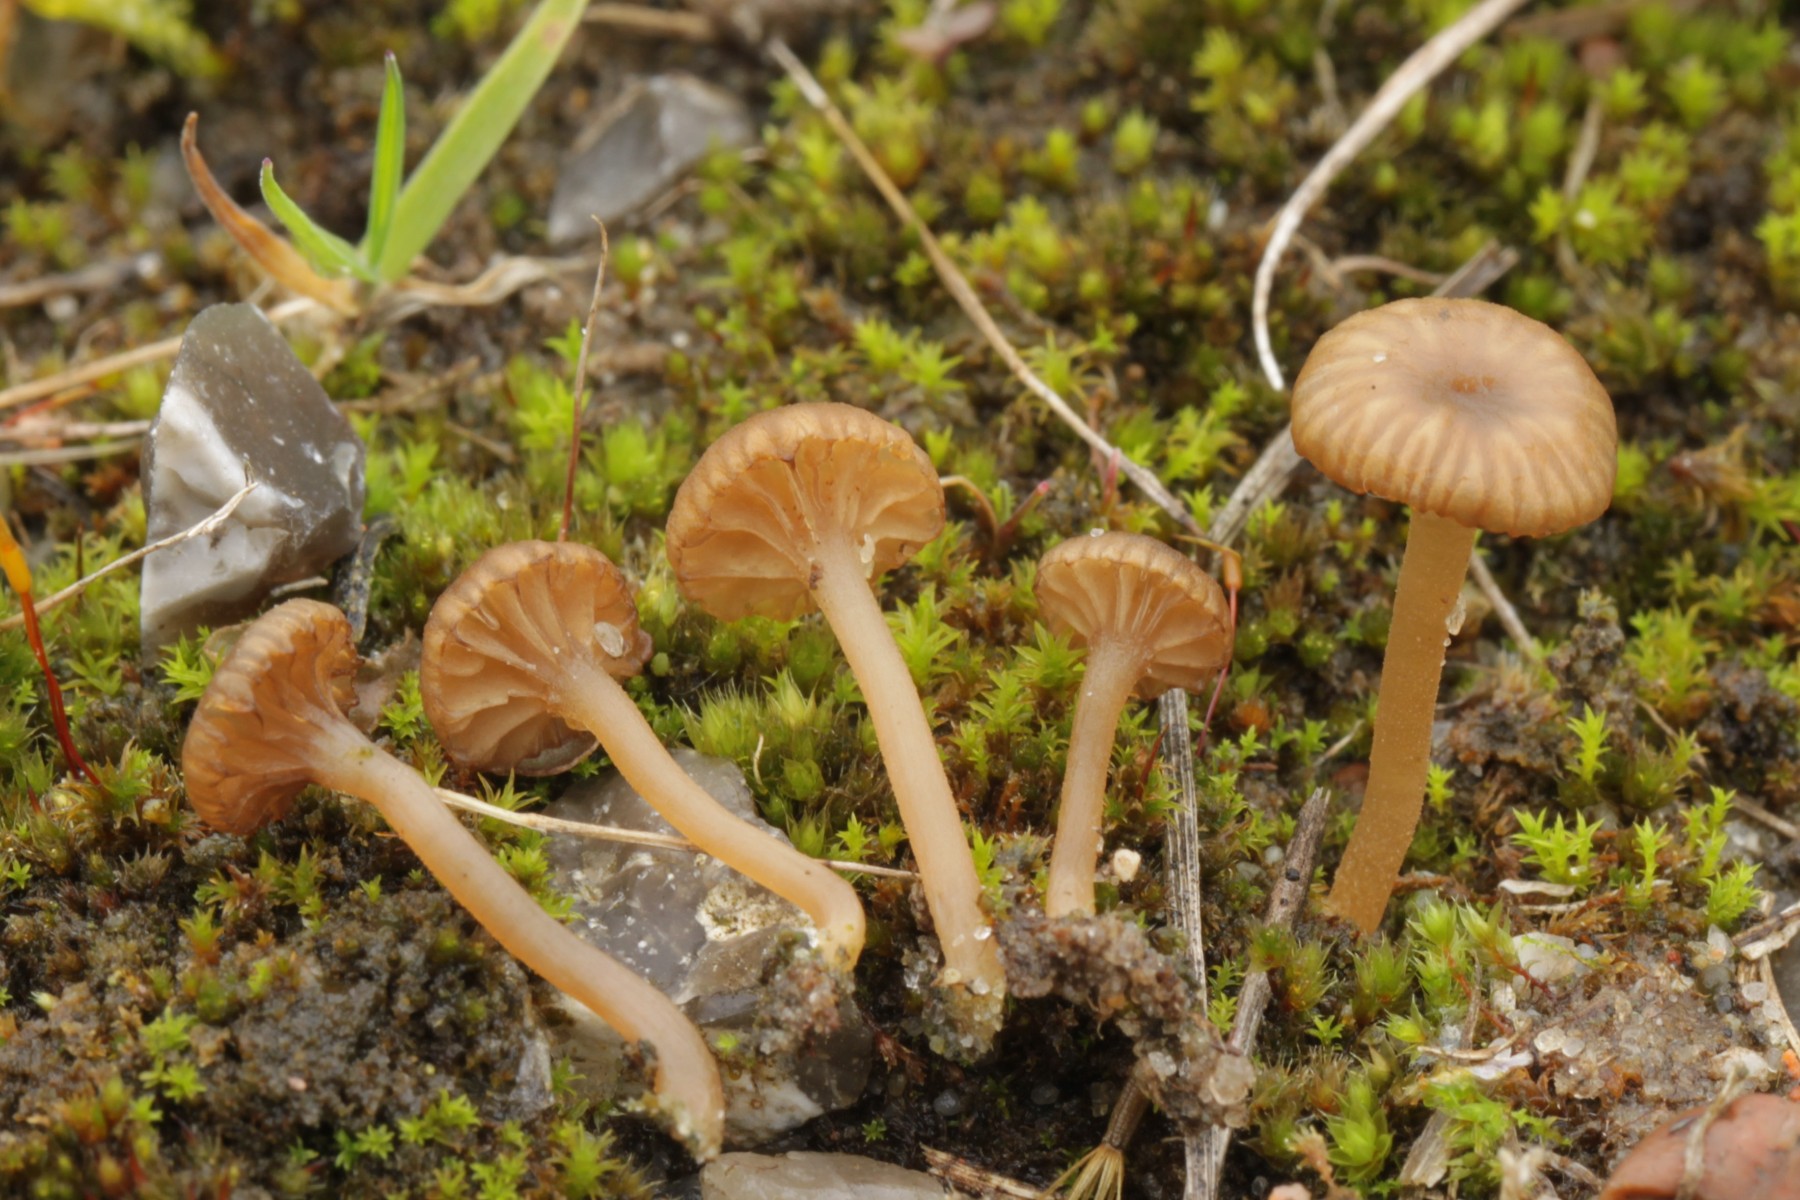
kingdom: Fungi
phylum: Basidiomycota
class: Agaricomycetes
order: Agaricales
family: Hygrophoraceae
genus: Arrhenia
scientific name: Arrhenia rustica
